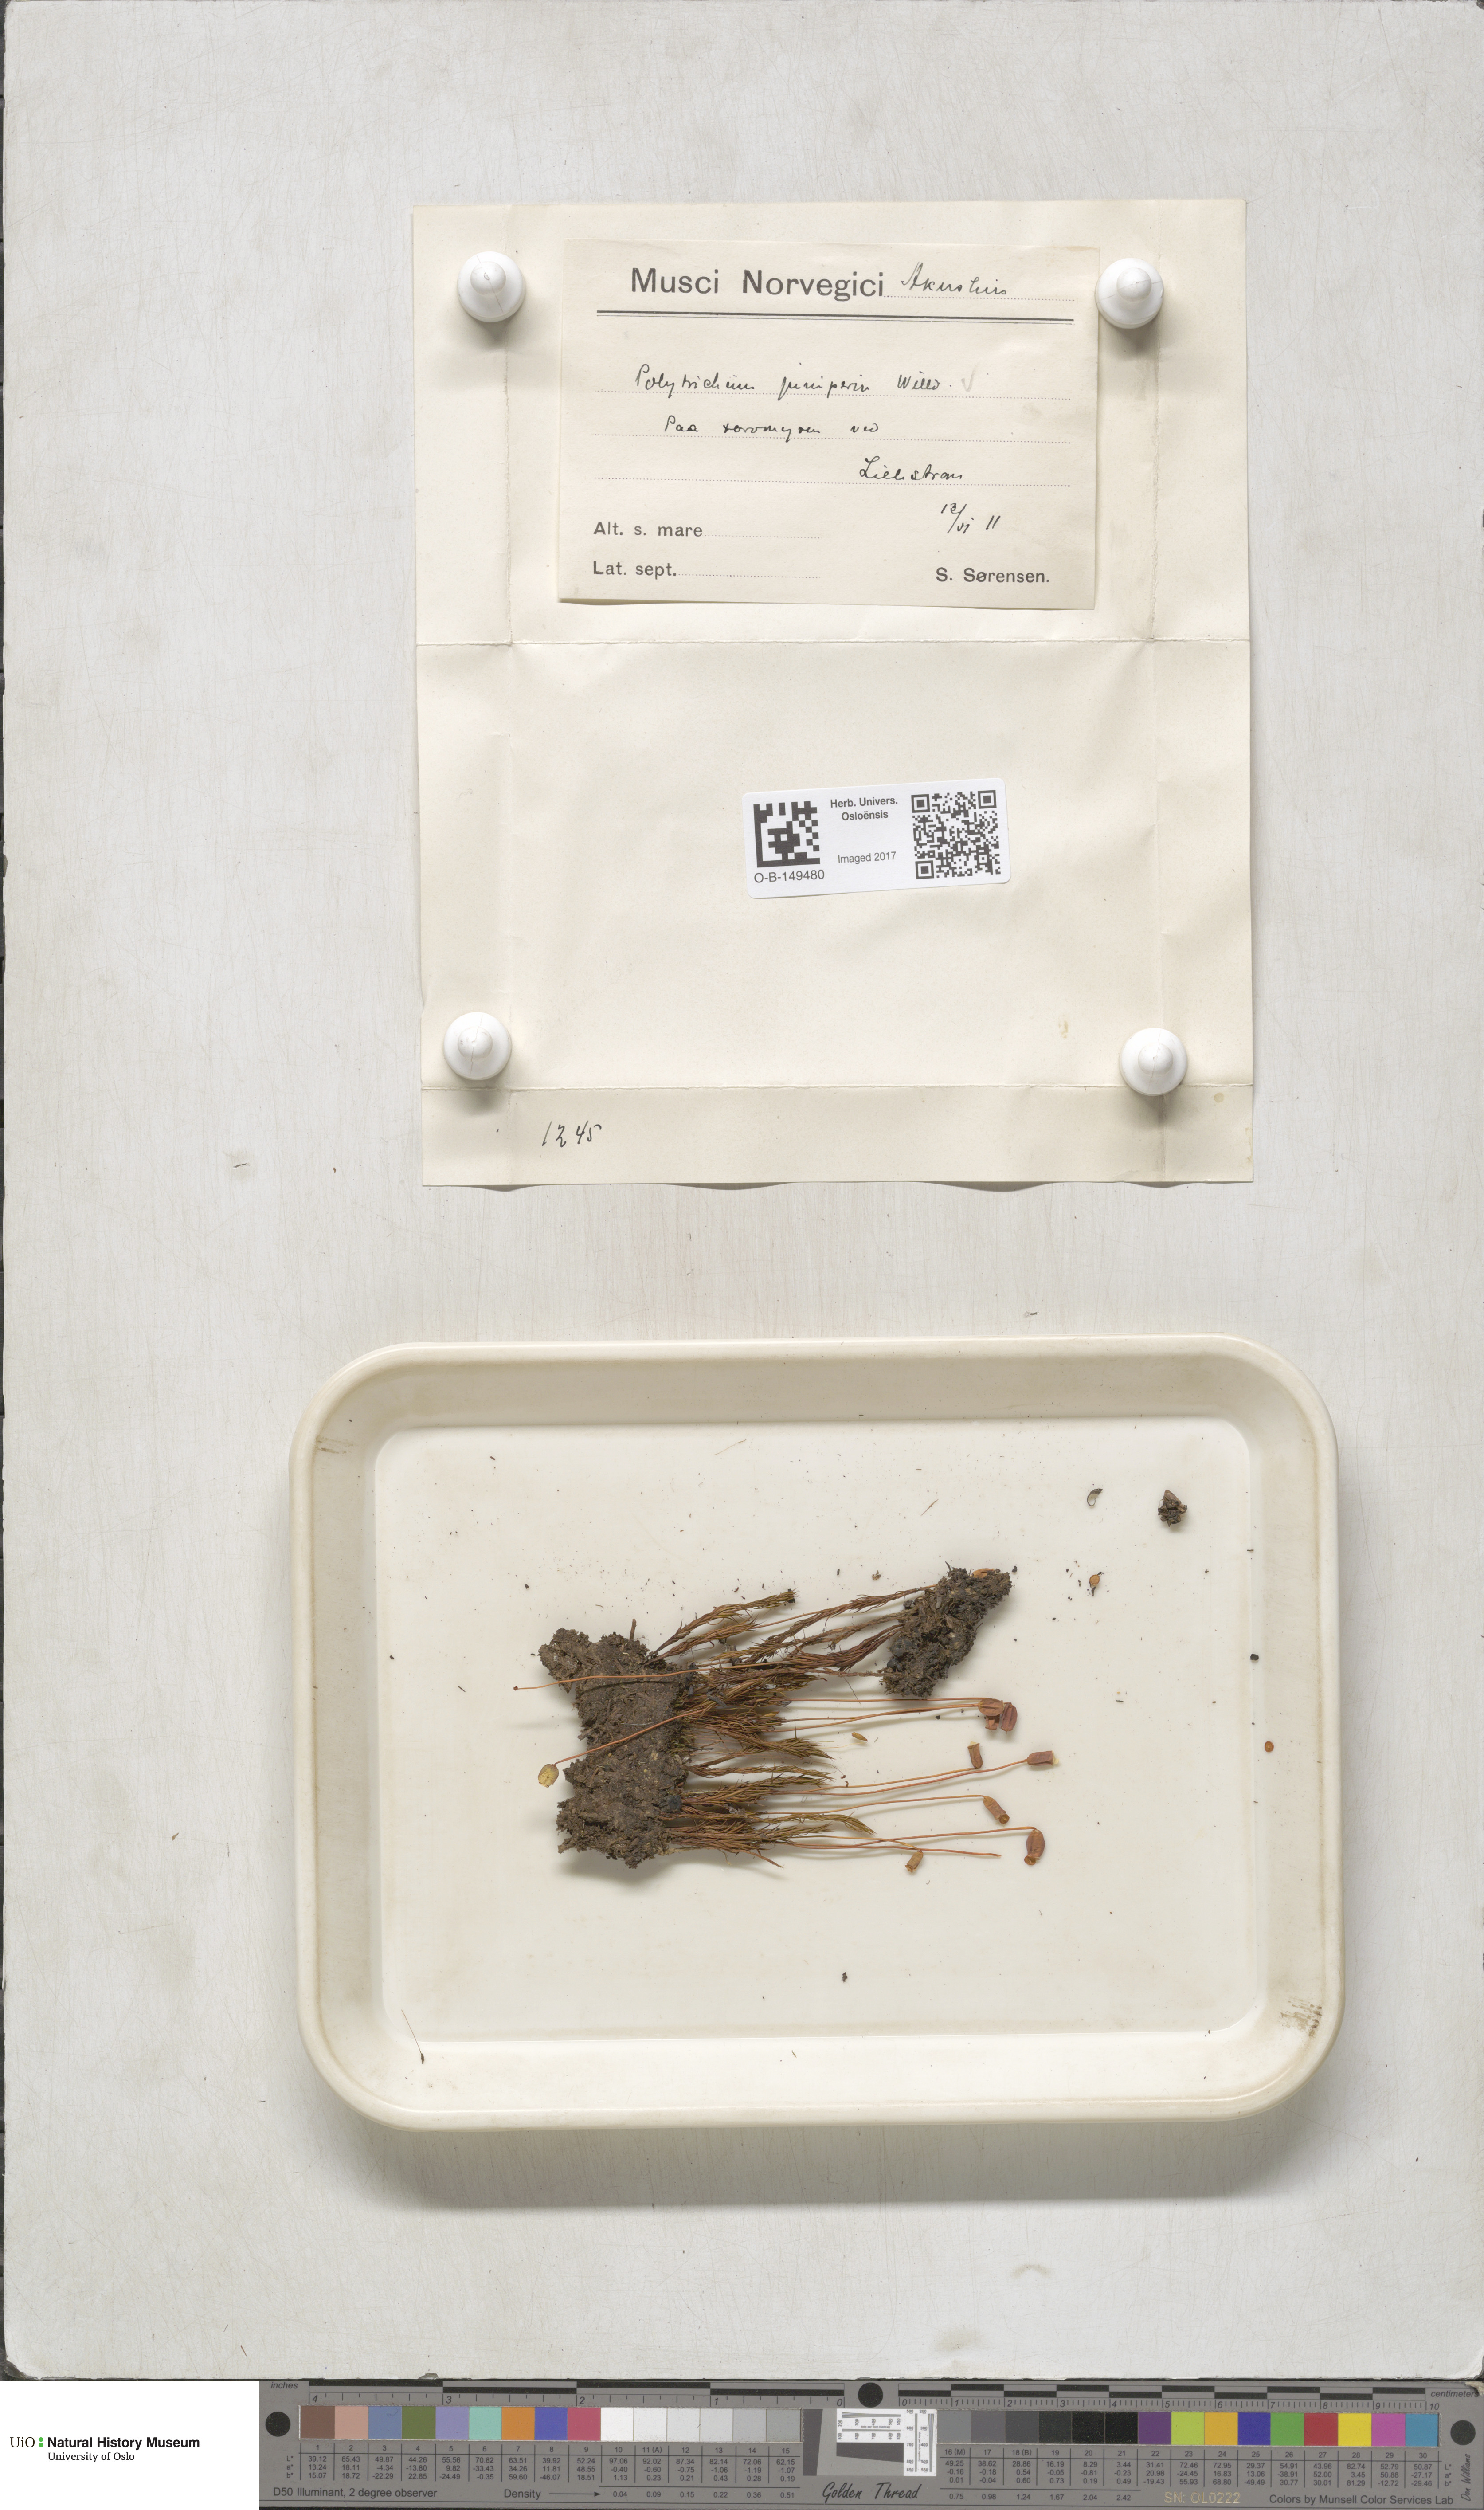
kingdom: Plantae
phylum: Bryophyta
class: Polytrichopsida
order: Polytrichales
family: Polytrichaceae
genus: Polytrichum
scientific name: Polytrichum juniperinum
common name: Juniper haircap moss
